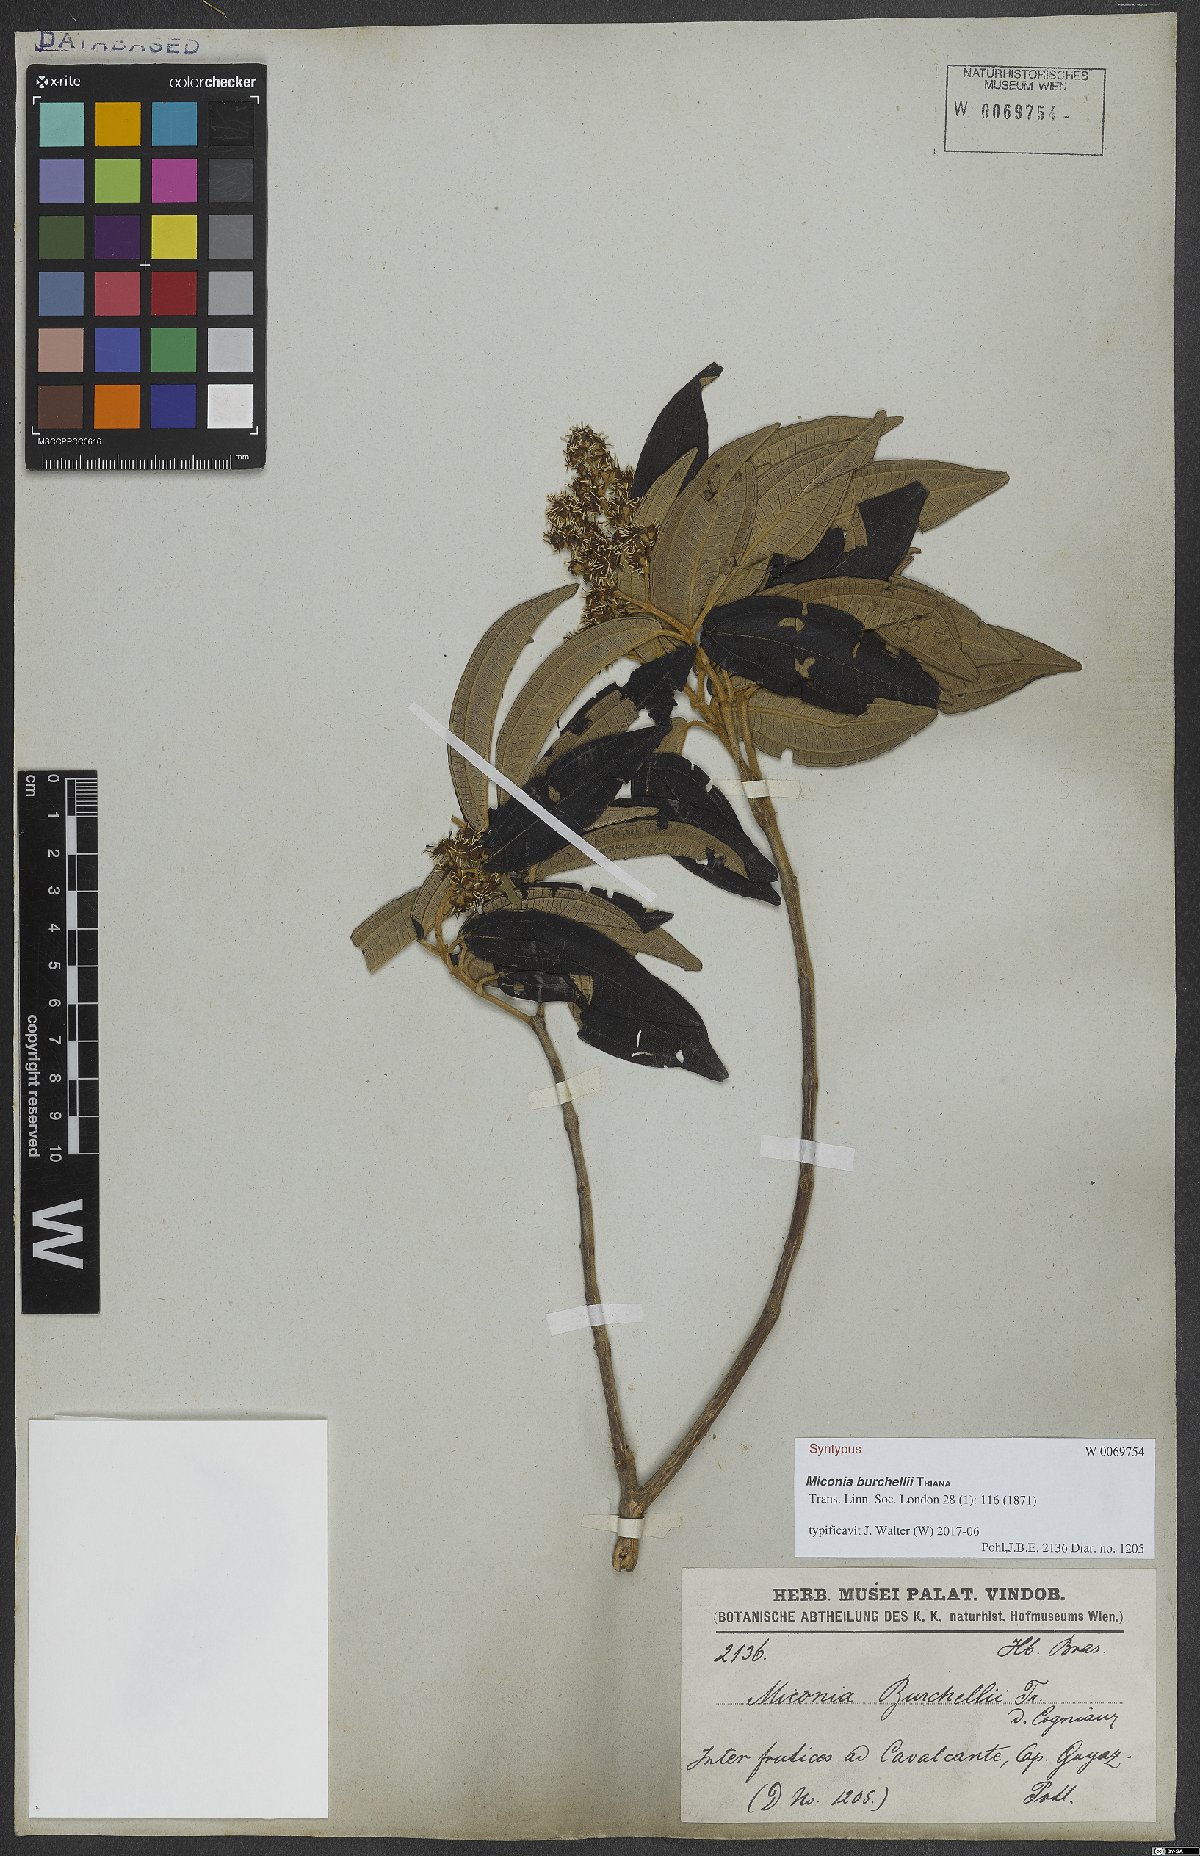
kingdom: Plantae
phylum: Tracheophyta
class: Magnoliopsida
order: Myrtales
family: Melastomataceae
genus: Miconia
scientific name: Miconia burchellii
